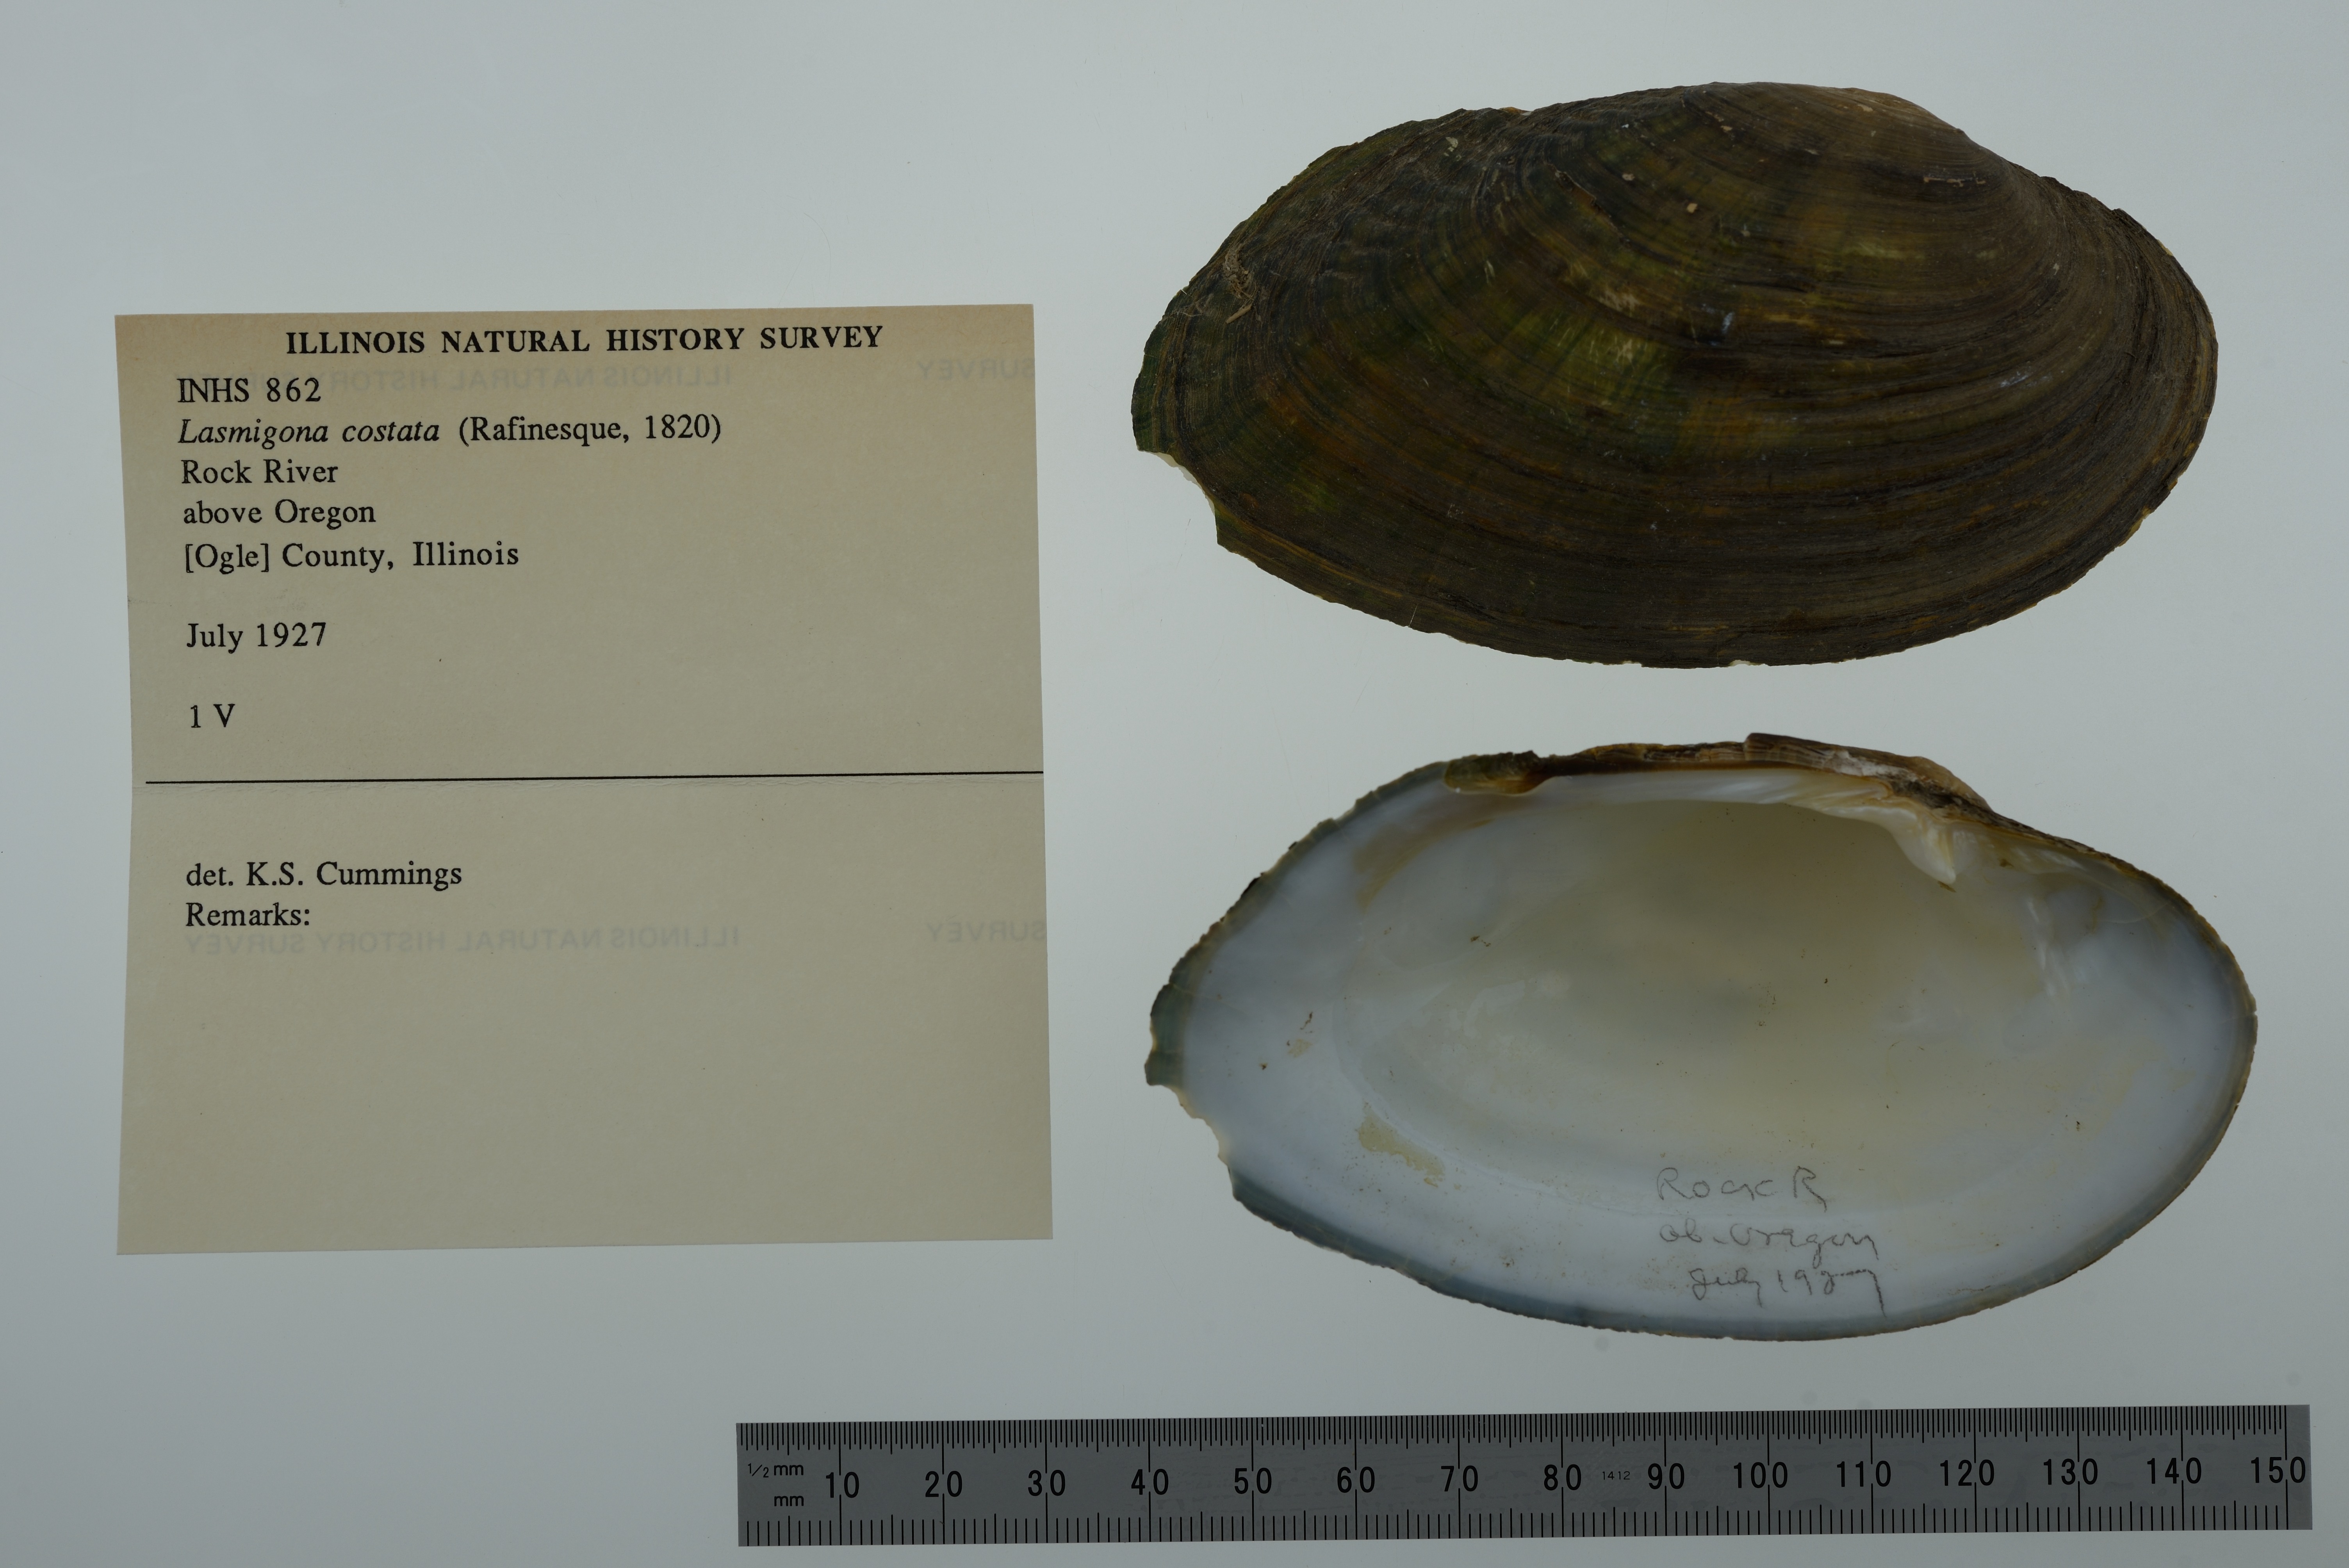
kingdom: Animalia
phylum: Mollusca
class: Bivalvia
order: Unionida
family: Unionidae
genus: Lasmigona
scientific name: Lasmigona costata
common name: Flutedshell
